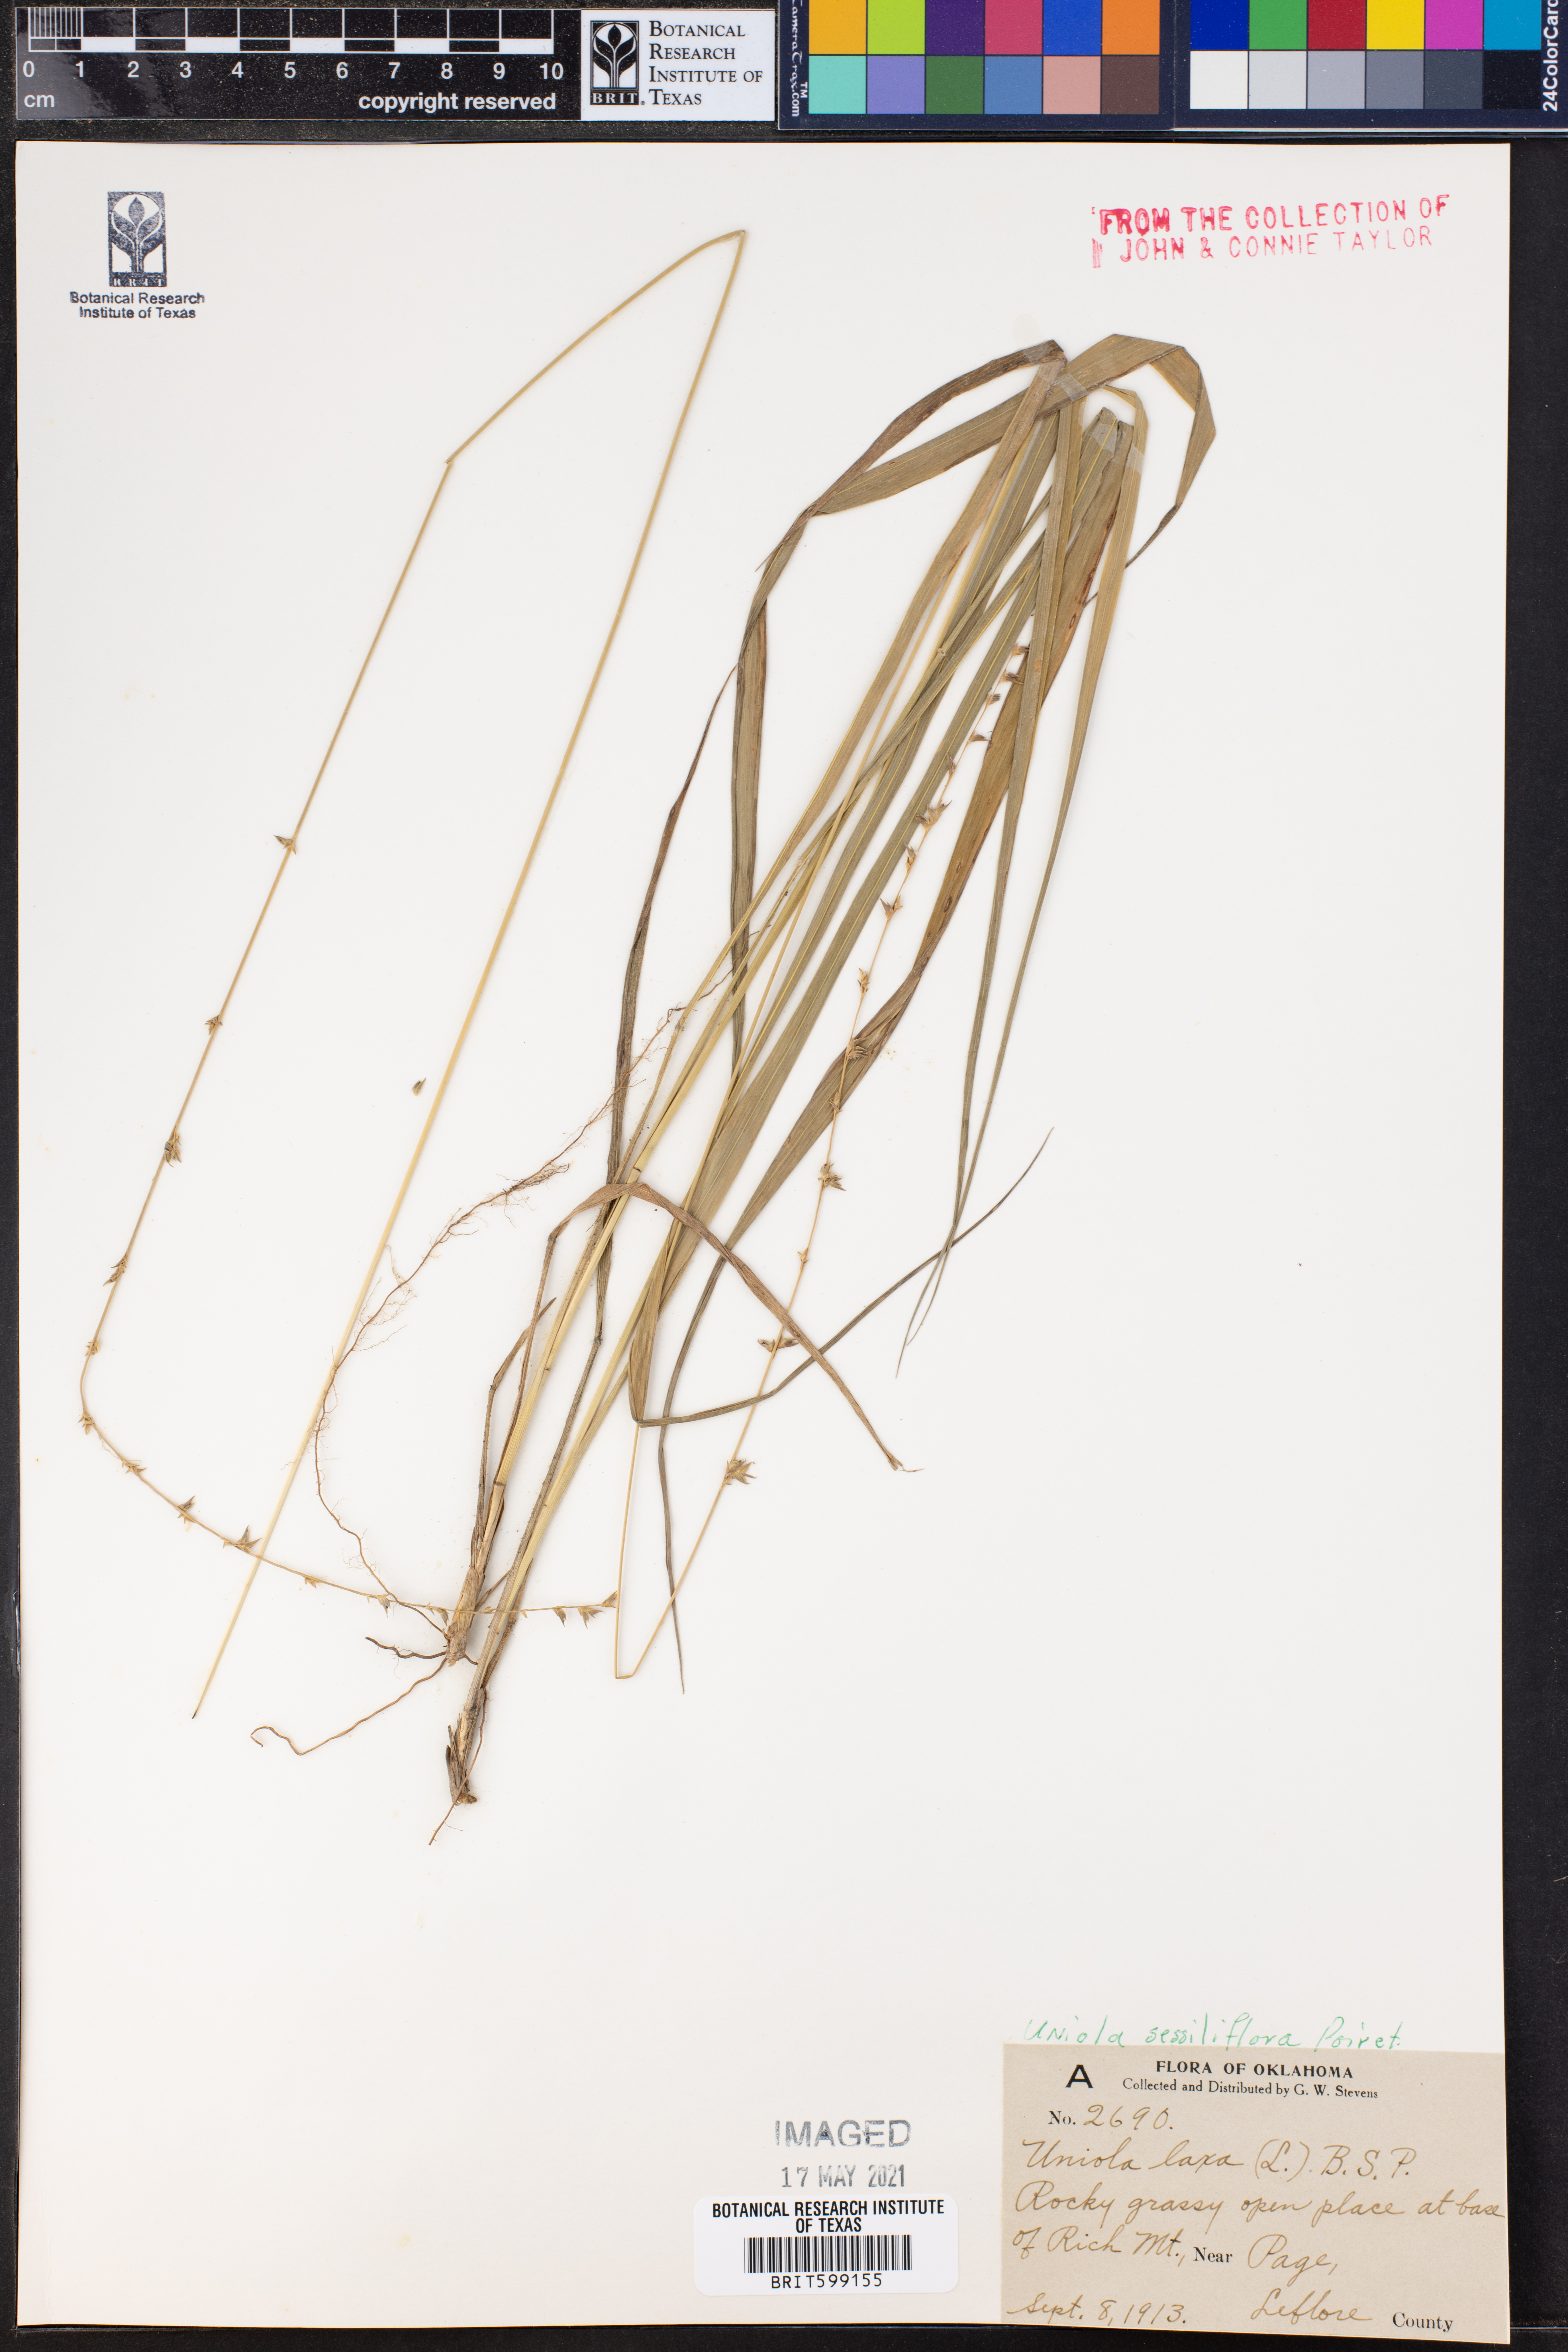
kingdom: Plantae
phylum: Tracheophyta
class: Liliopsida
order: Poales
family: Poaceae
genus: Chasmanthium
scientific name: Chasmanthium laxum
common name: Slender chasmanthium
